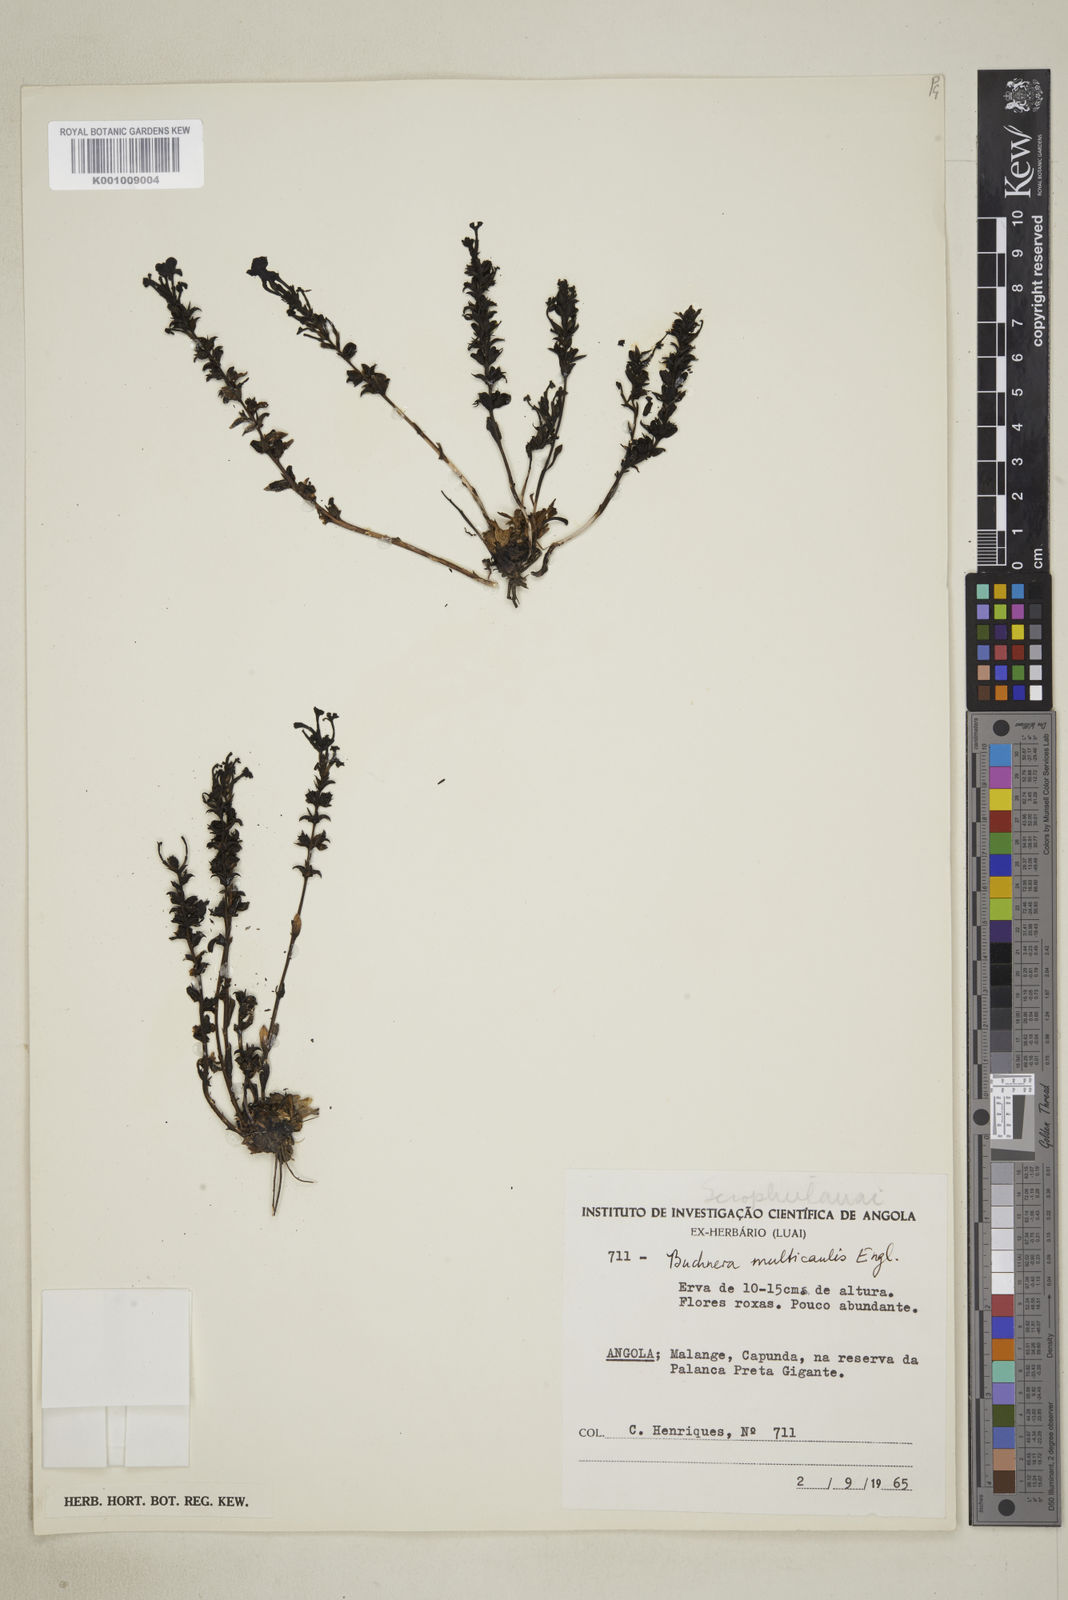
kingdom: Plantae
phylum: Tracheophyta
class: Magnoliopsida
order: Lamiales
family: Orobanchaceae
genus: Buchnera
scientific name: Buchnera multicaulis
